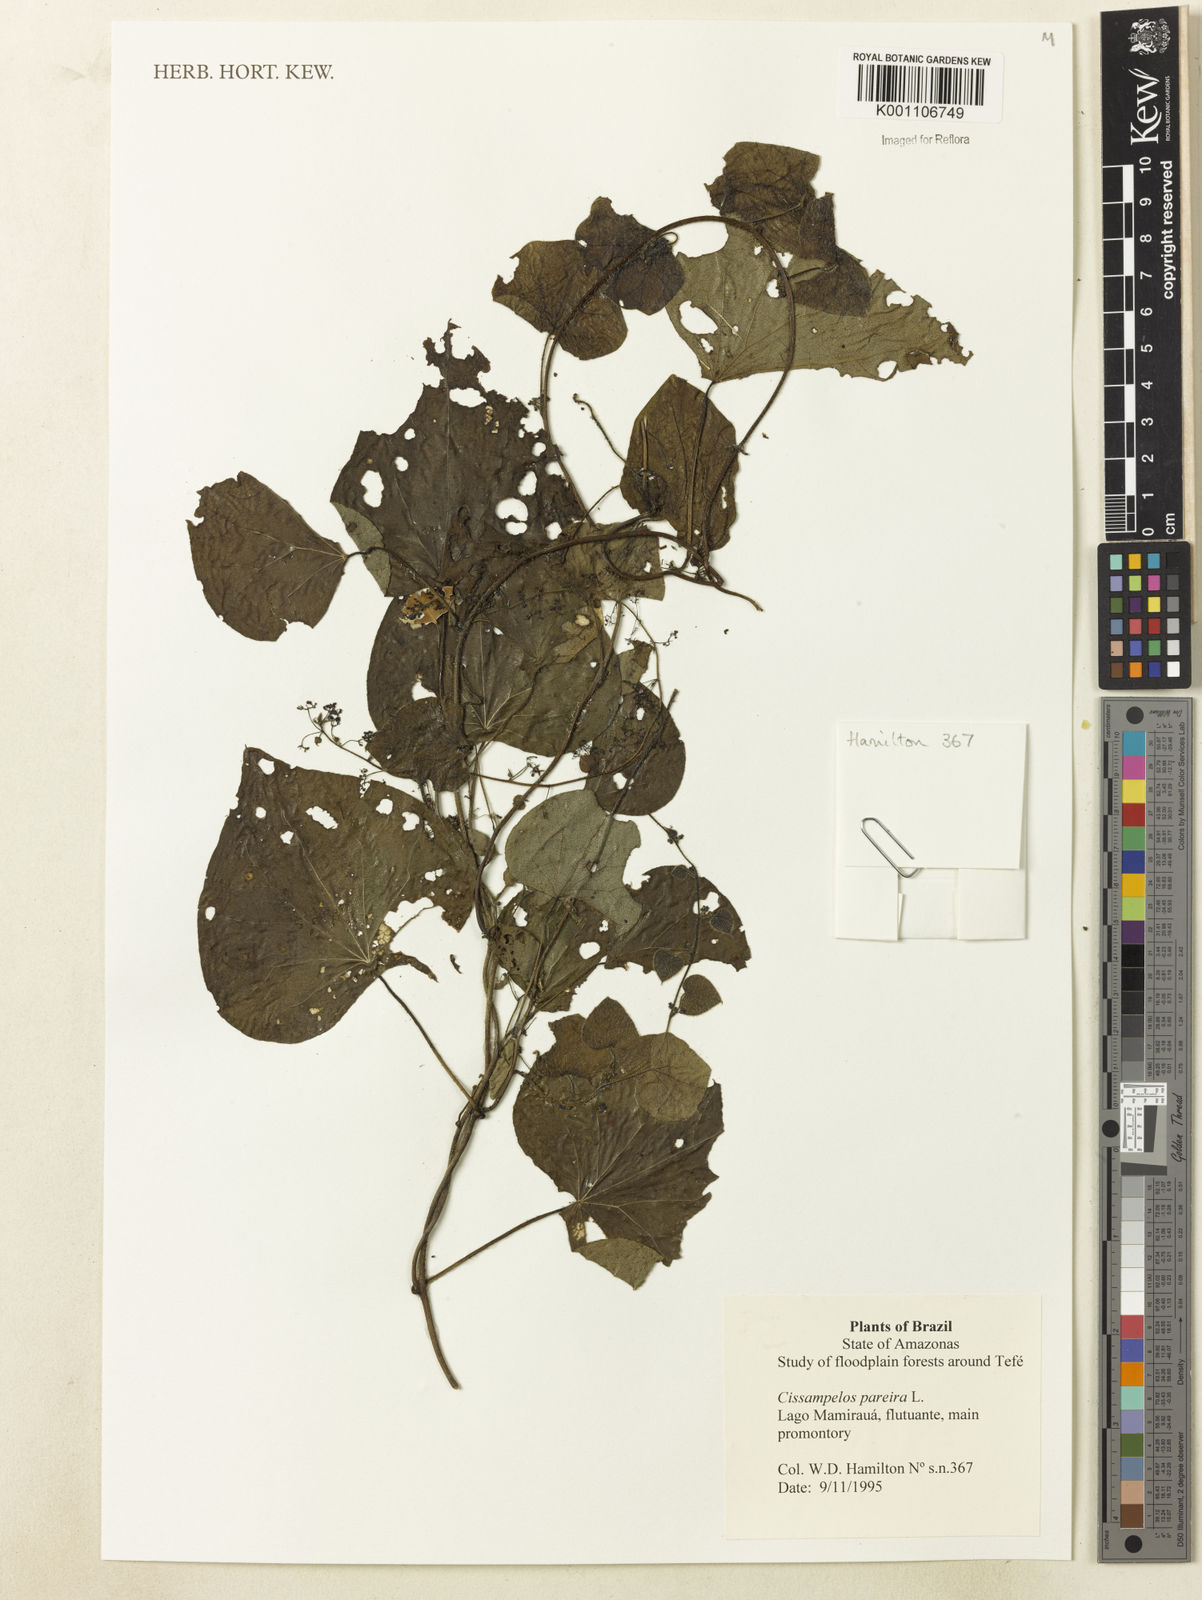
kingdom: Plantae
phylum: Tracheophyta
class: Magnoliopsida
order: Ranunculales
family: Menispermaceae
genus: Cissampelos
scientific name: Cissampelos pareira
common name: Velvetleaf
